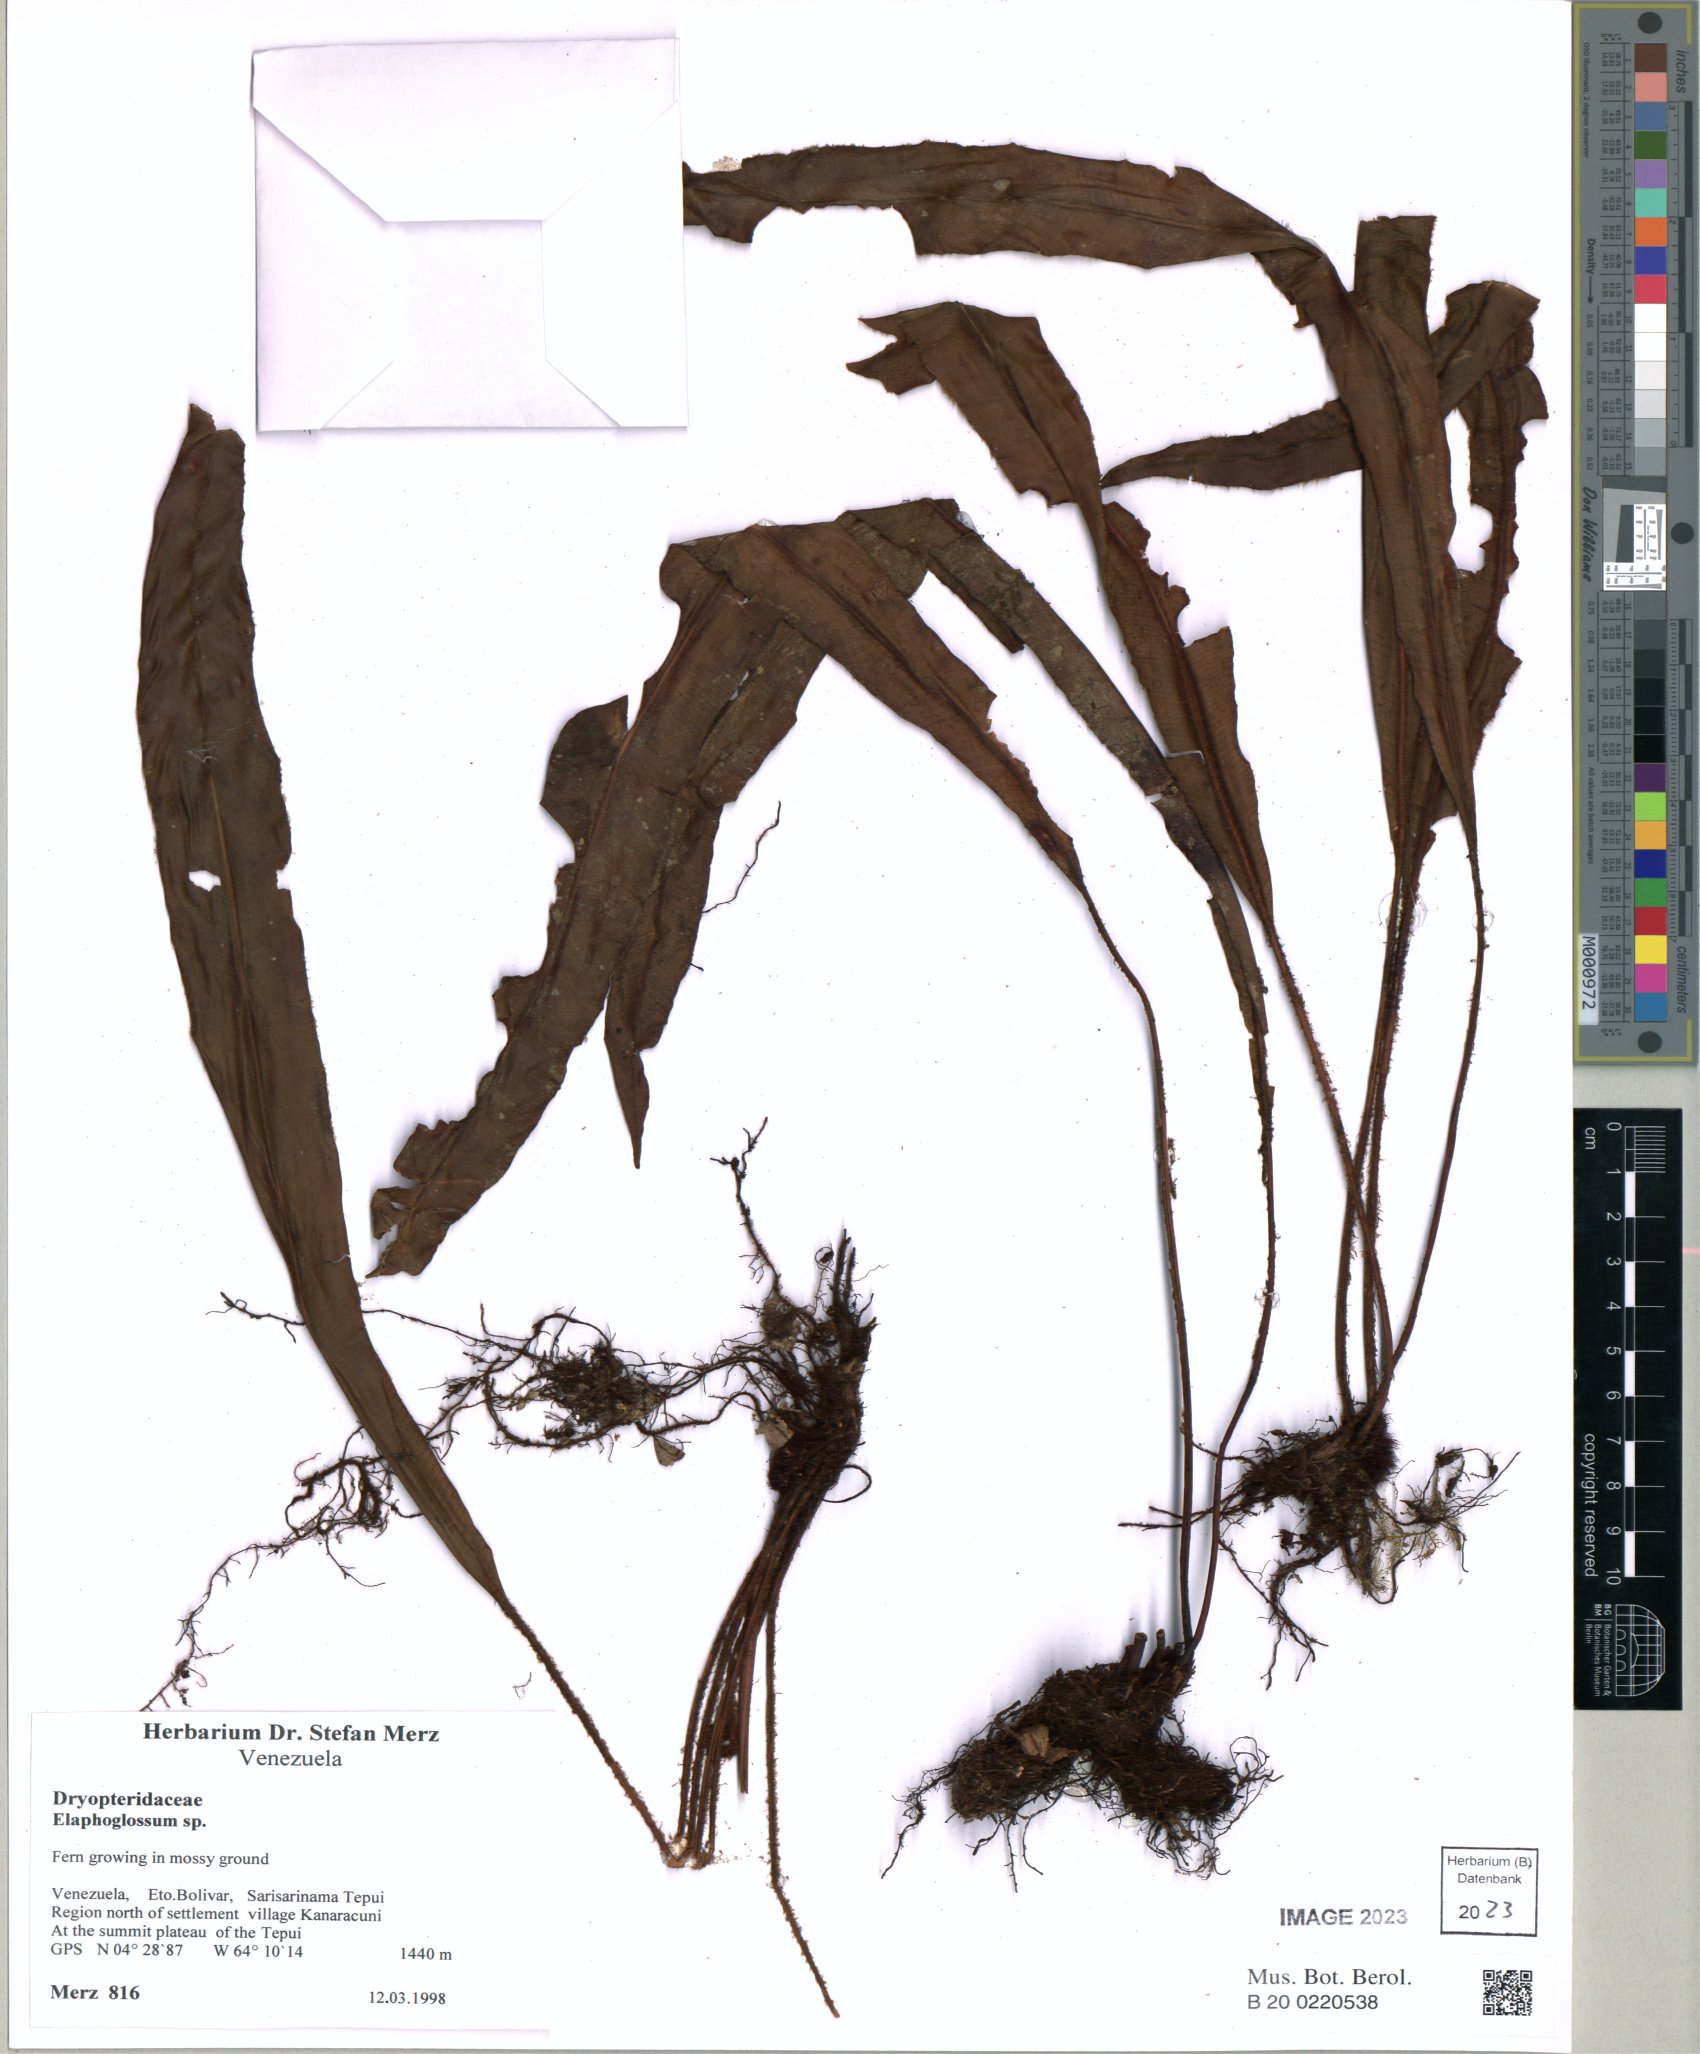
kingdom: Plantae
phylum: Tracheophyta
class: Polypodiopsida
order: Polypodiales
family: Dryopteridaceae
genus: Elaphoglossum
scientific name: Elaphoglossum
